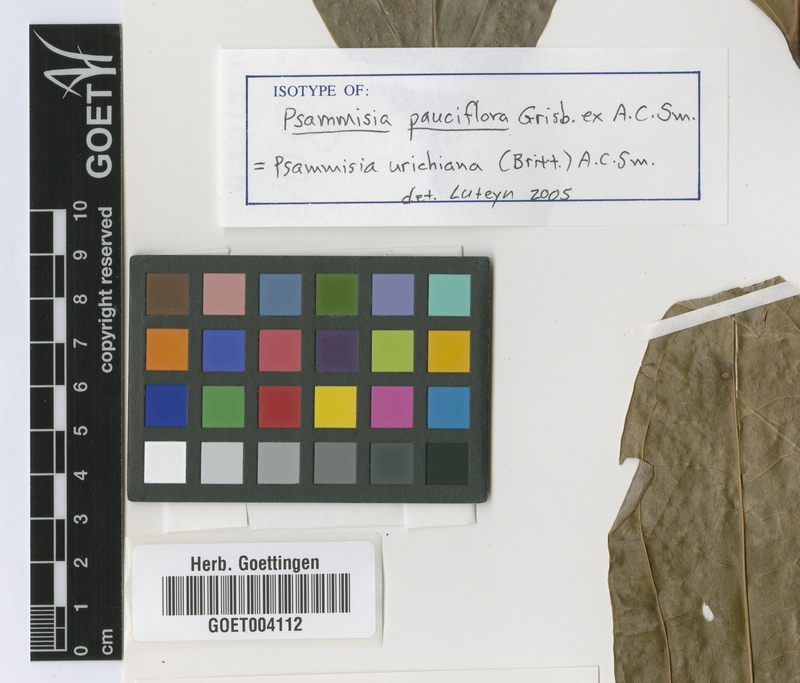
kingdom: Plantae
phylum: Tracheophyta
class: Magnoliopsida
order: Ericales
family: Ericaceae
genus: Psammisia
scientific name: Psammisia urichiana
